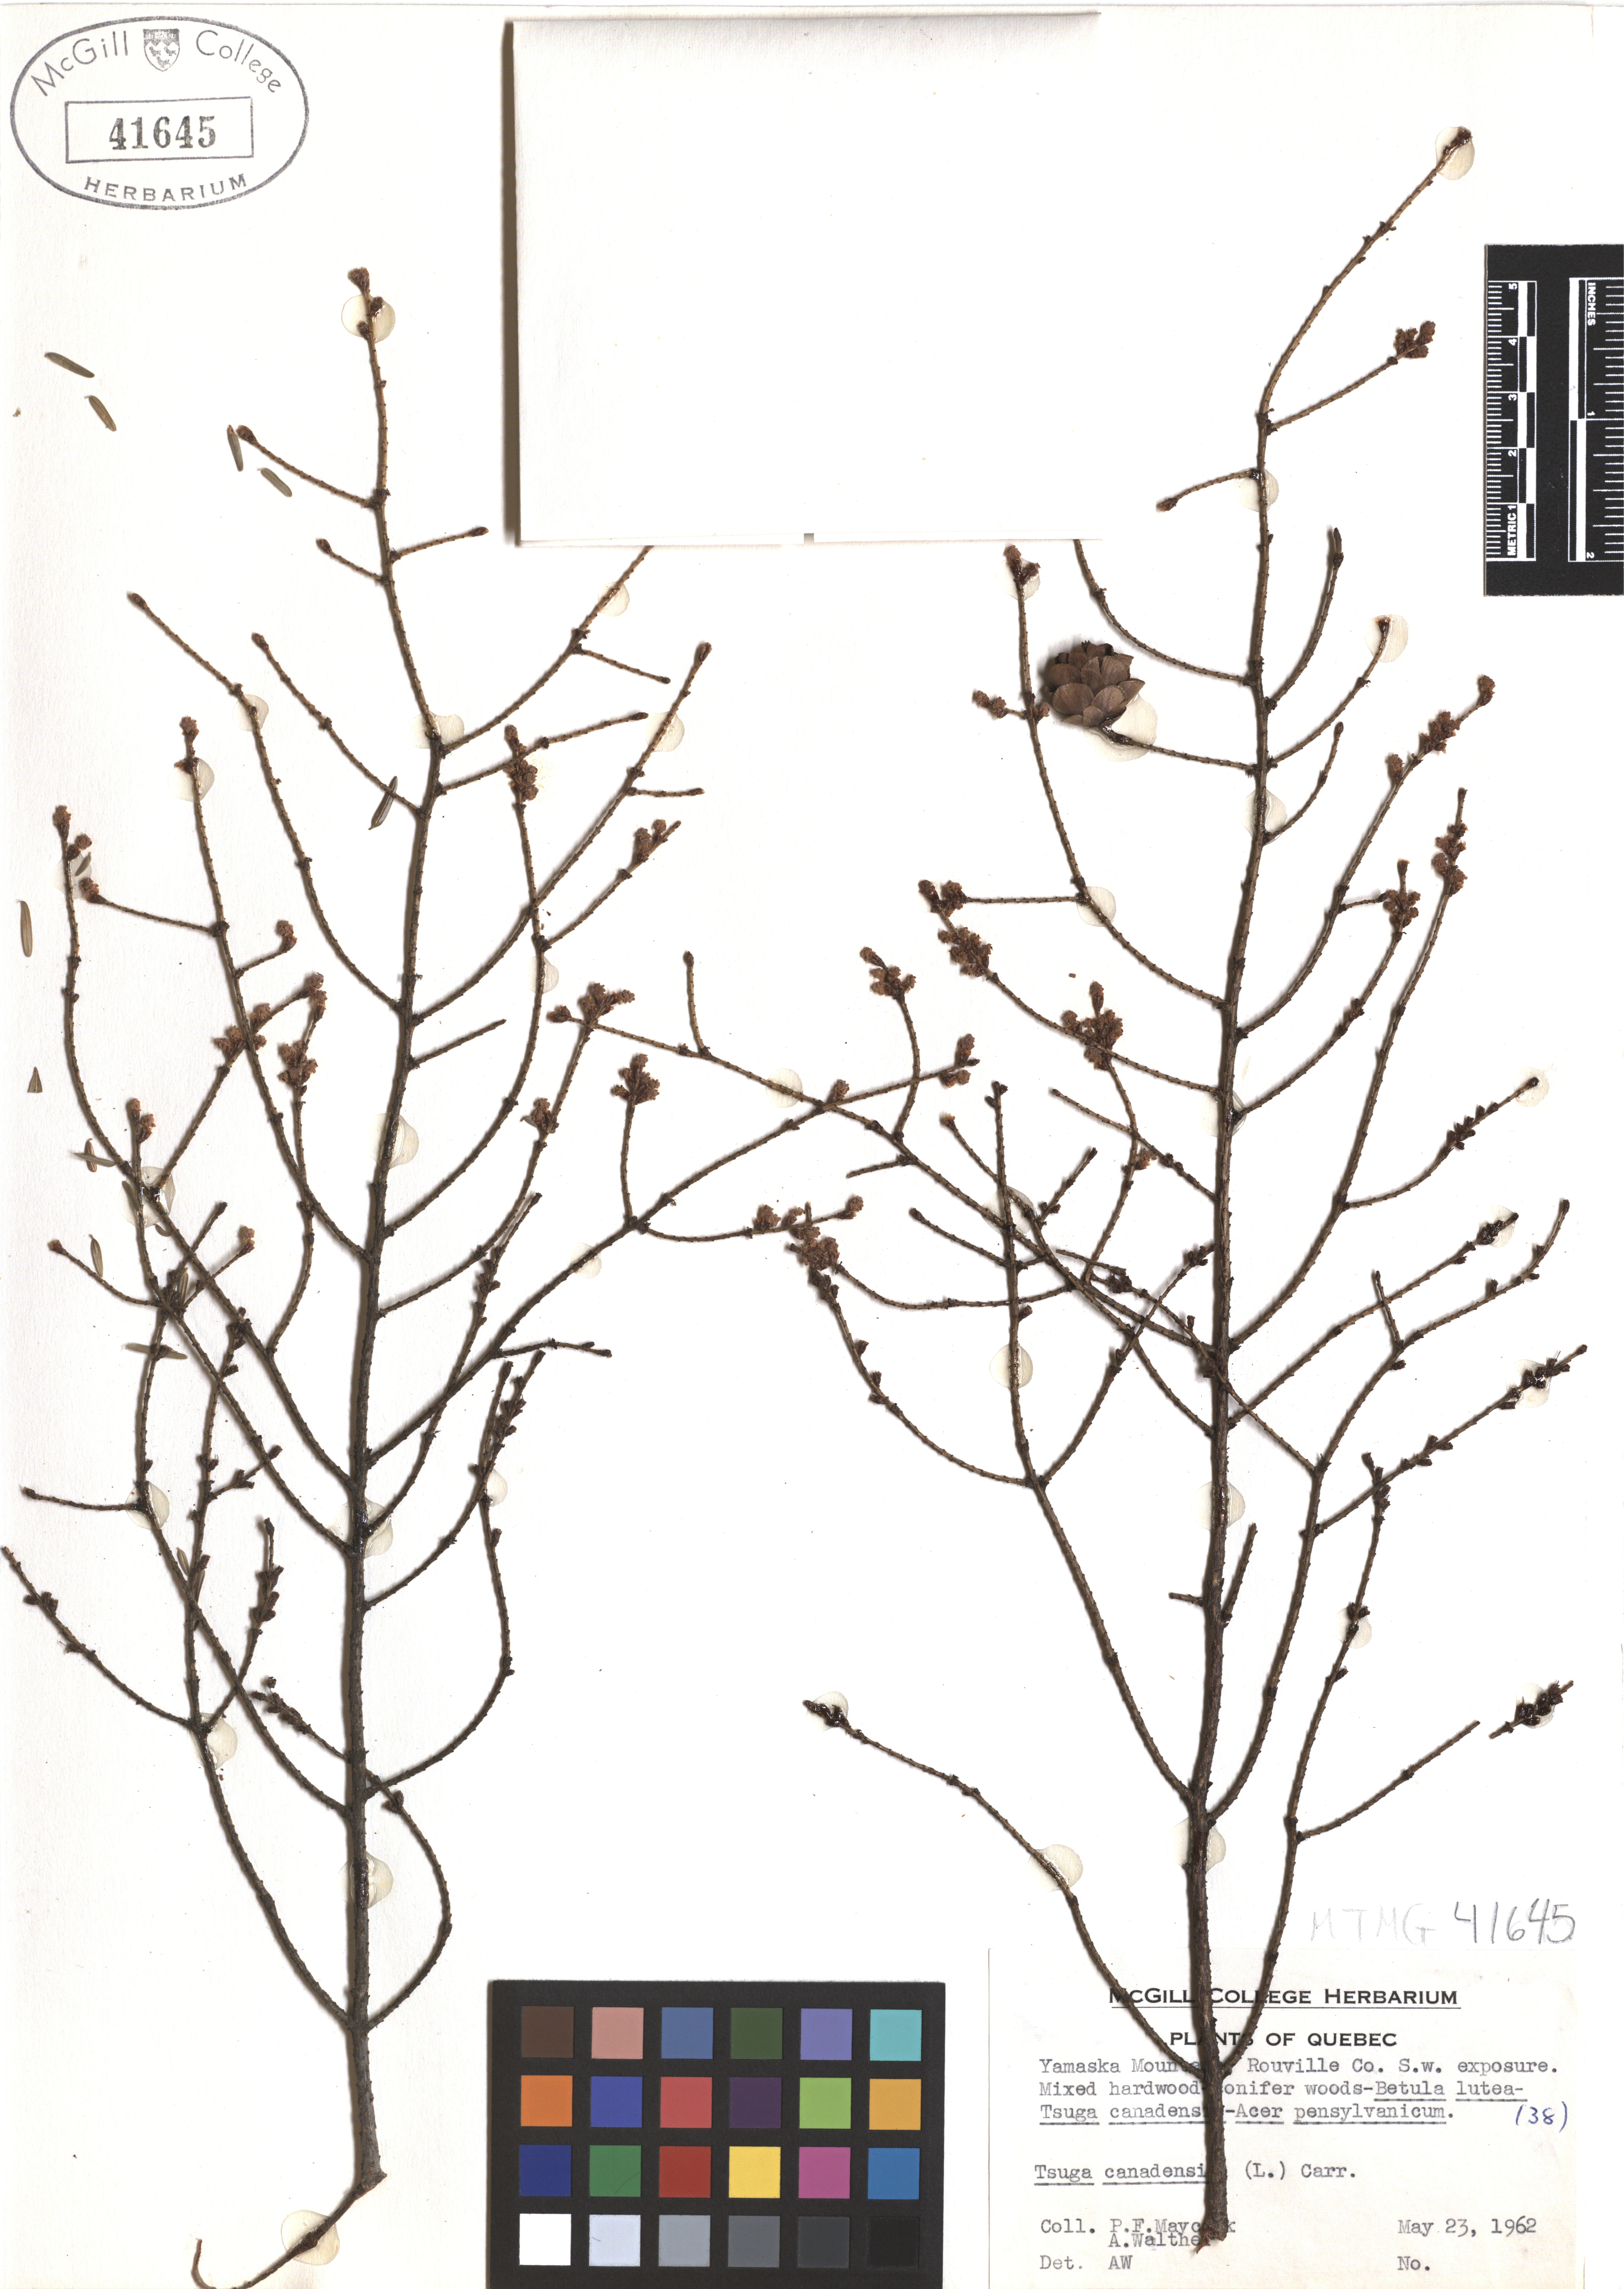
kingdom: Plantae
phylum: Tracheophyta
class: Pinopsida
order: Pinales
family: Pinaceae
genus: Tsuga
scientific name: Tsuga canadensis
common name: Eastern hemlock
